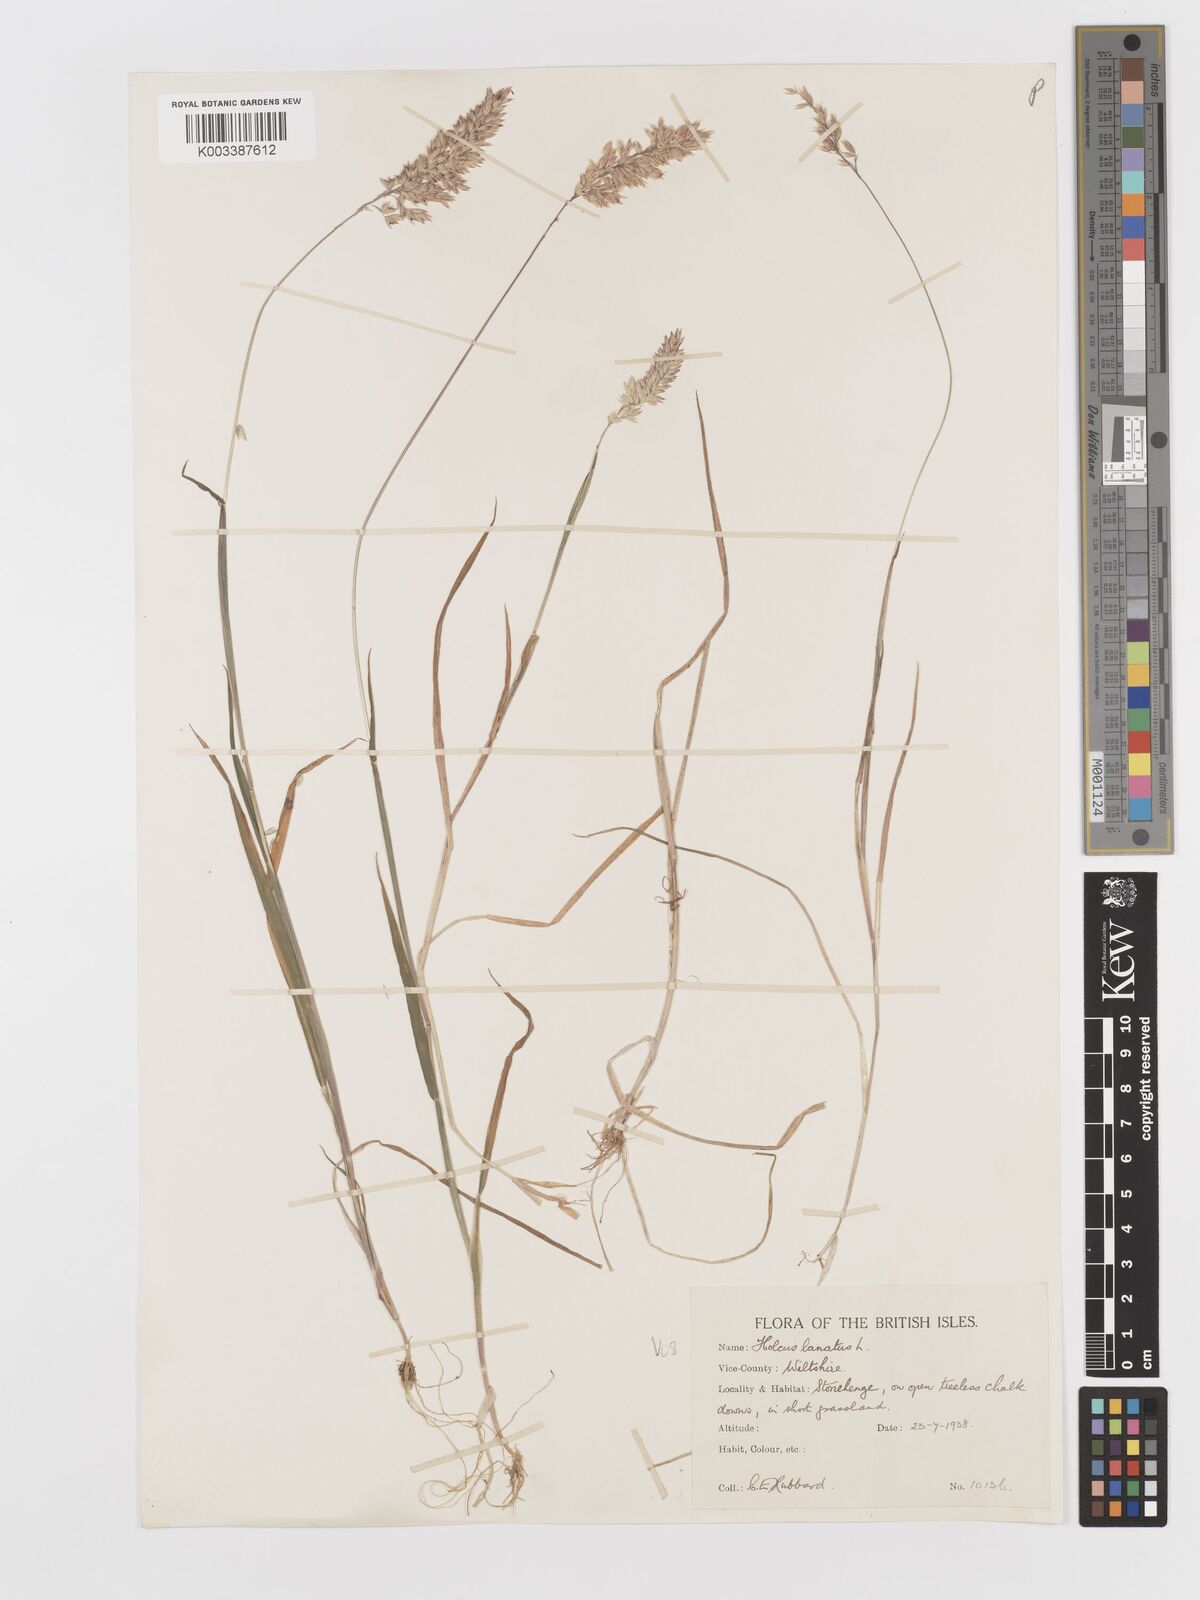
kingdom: Plantae
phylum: Tracheophyta
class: Liliopsida
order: Poales
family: Poaceae
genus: Holcus
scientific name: Holcus lanatus
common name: Yorkshire-fog
